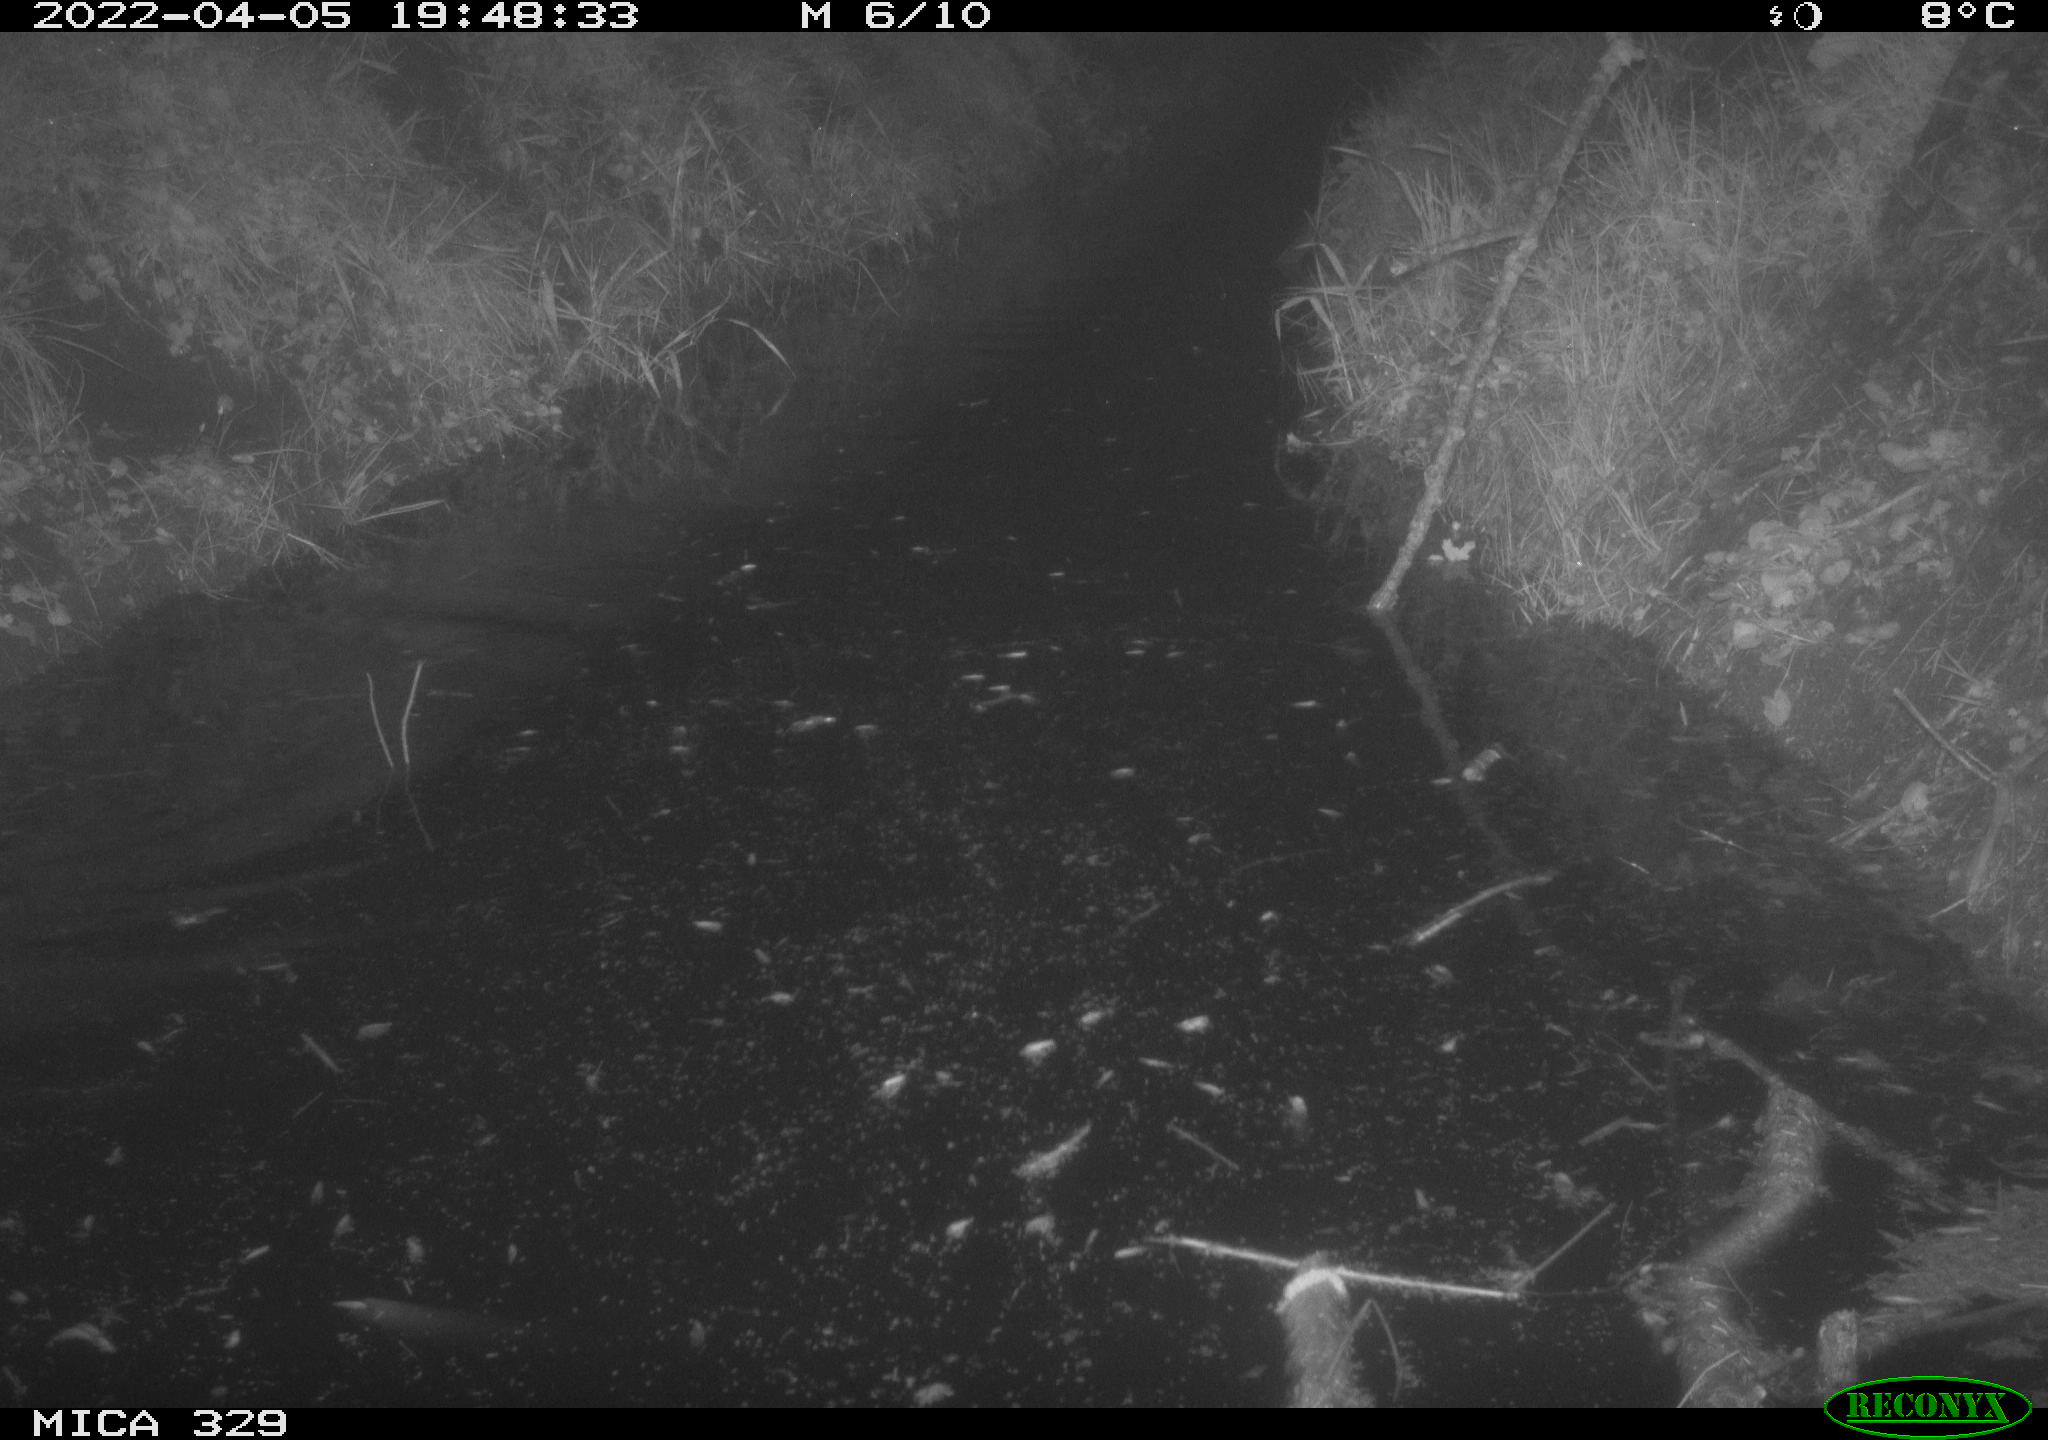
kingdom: Animalia
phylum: Chordata
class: Aves
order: Anseriformes
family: Anatidae
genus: Anas
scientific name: Anas platyrhynchos
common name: Mallard
